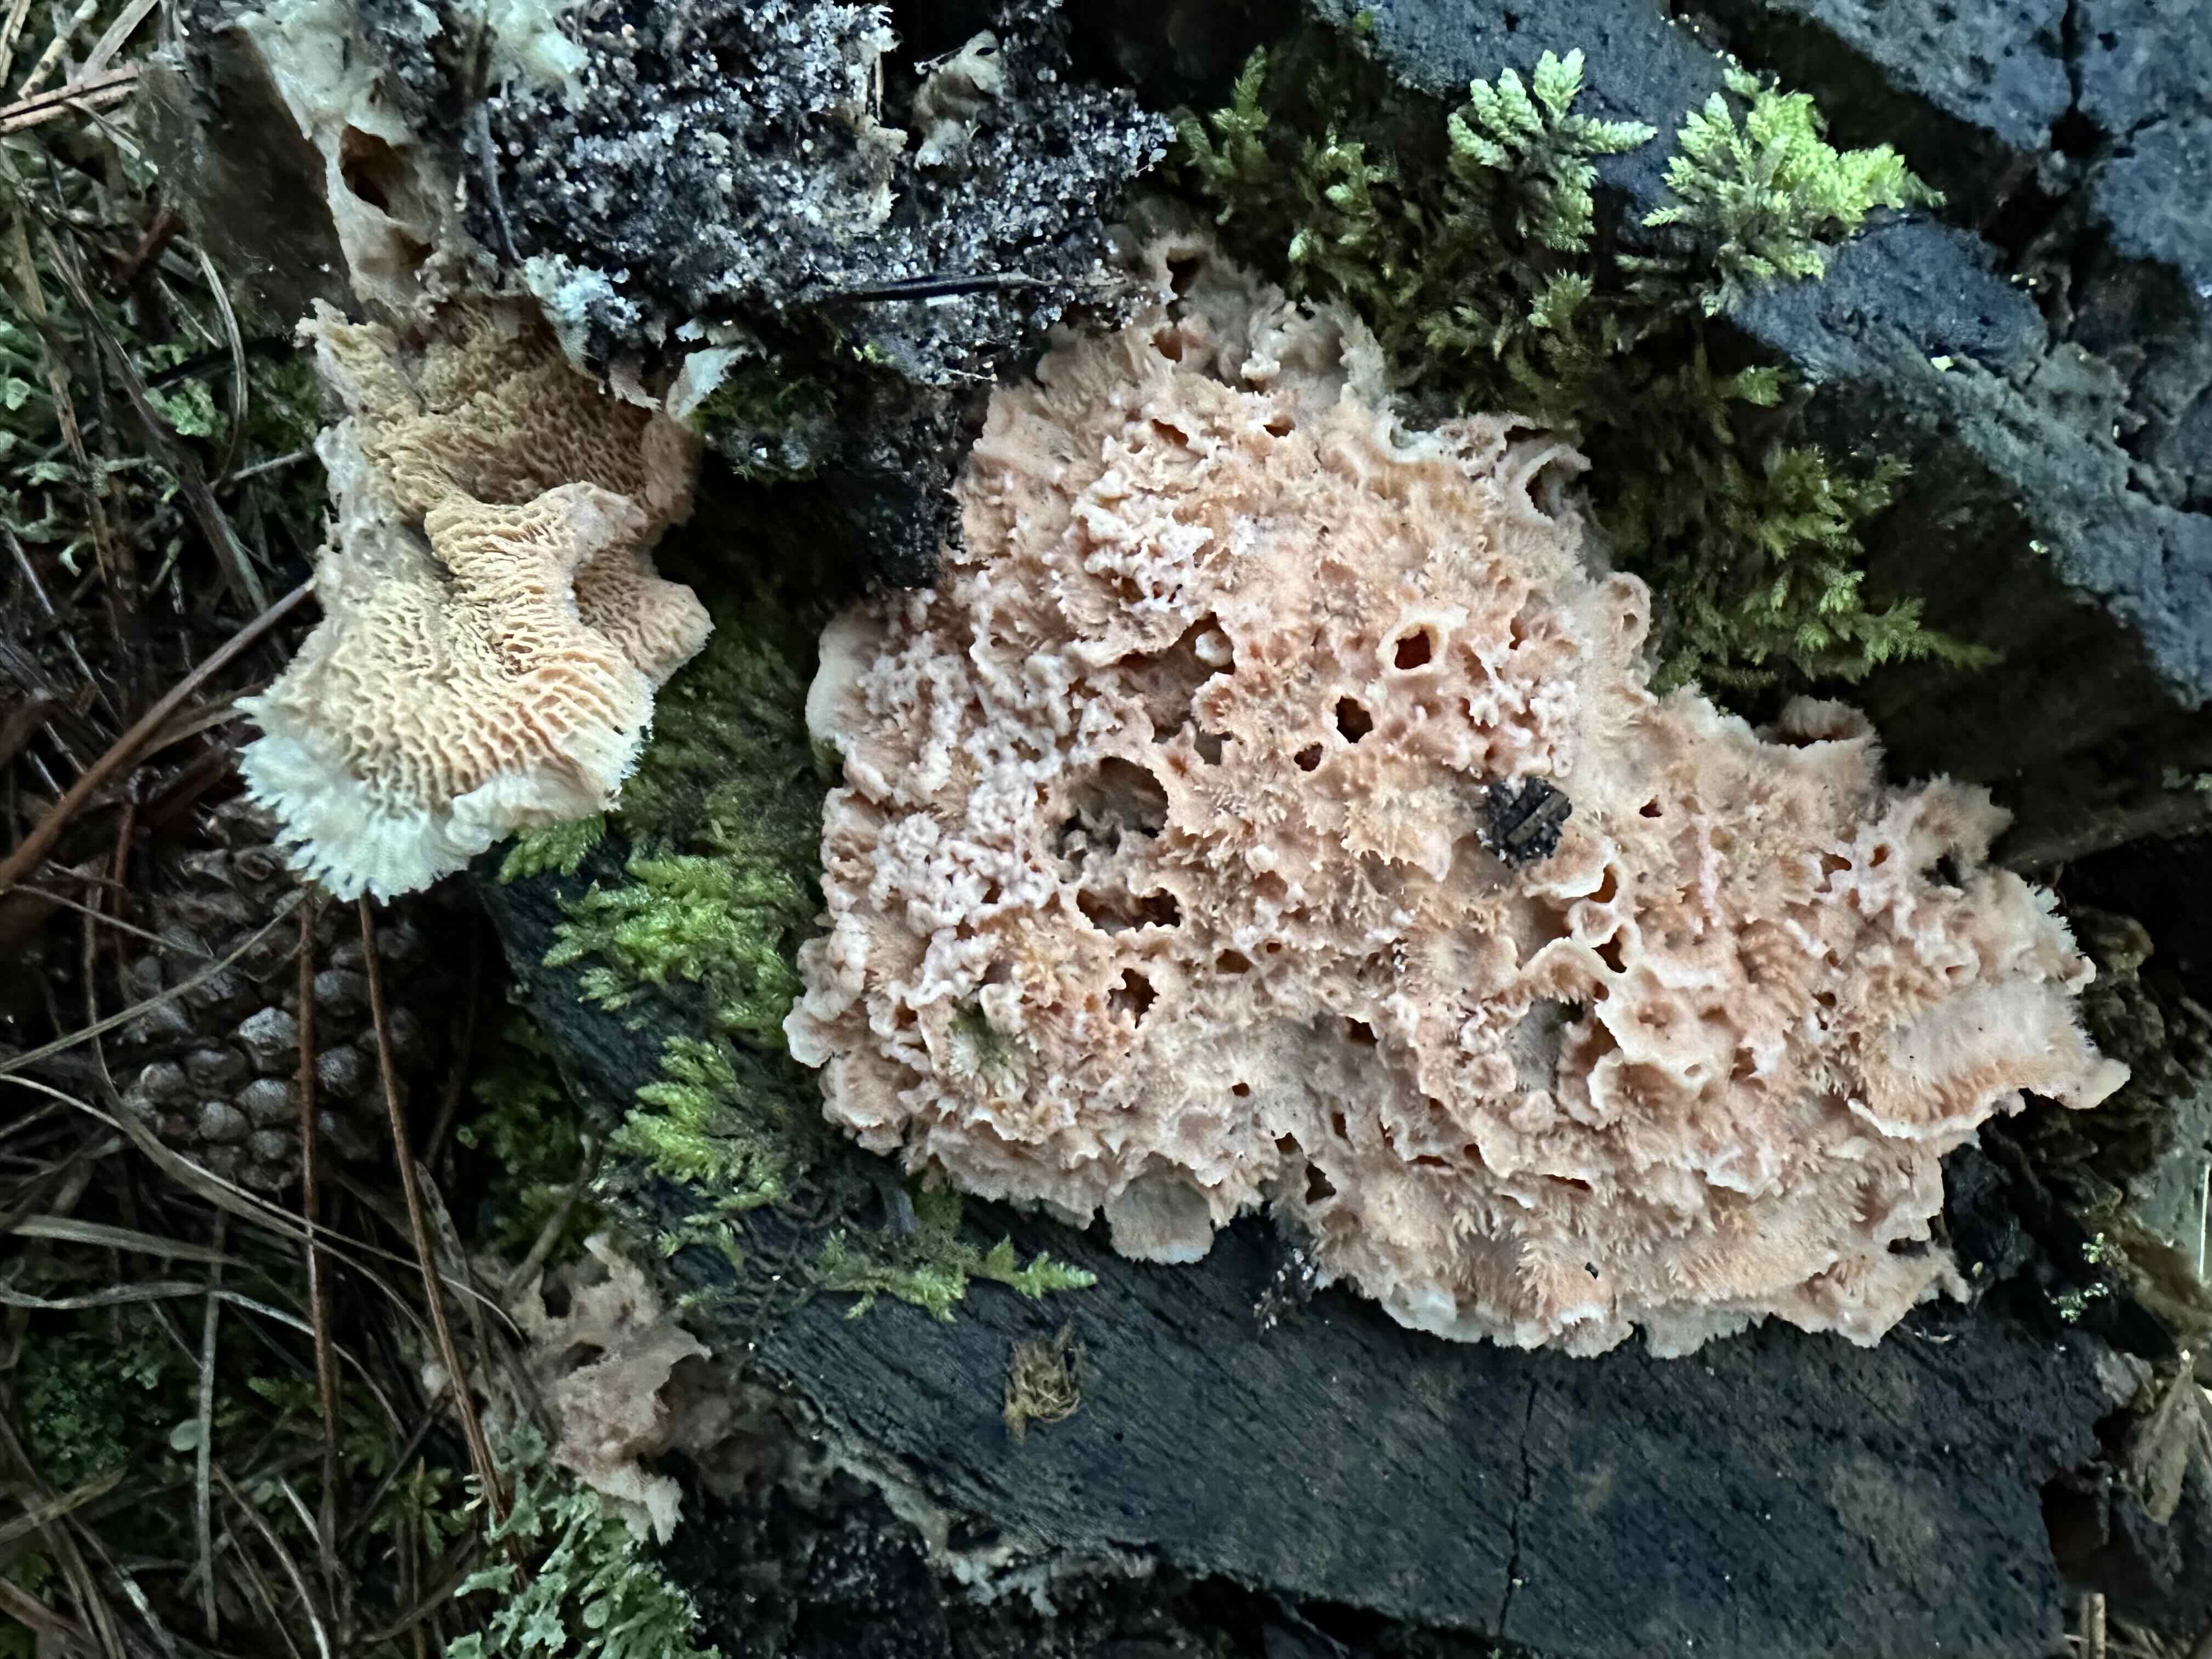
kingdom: Fungi
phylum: Basidiomycota
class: Agaricomycetes
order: Polyporales
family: Meruliaceae
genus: Phlebia
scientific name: Phlebia tremellosa
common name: bævrende åresvamp
